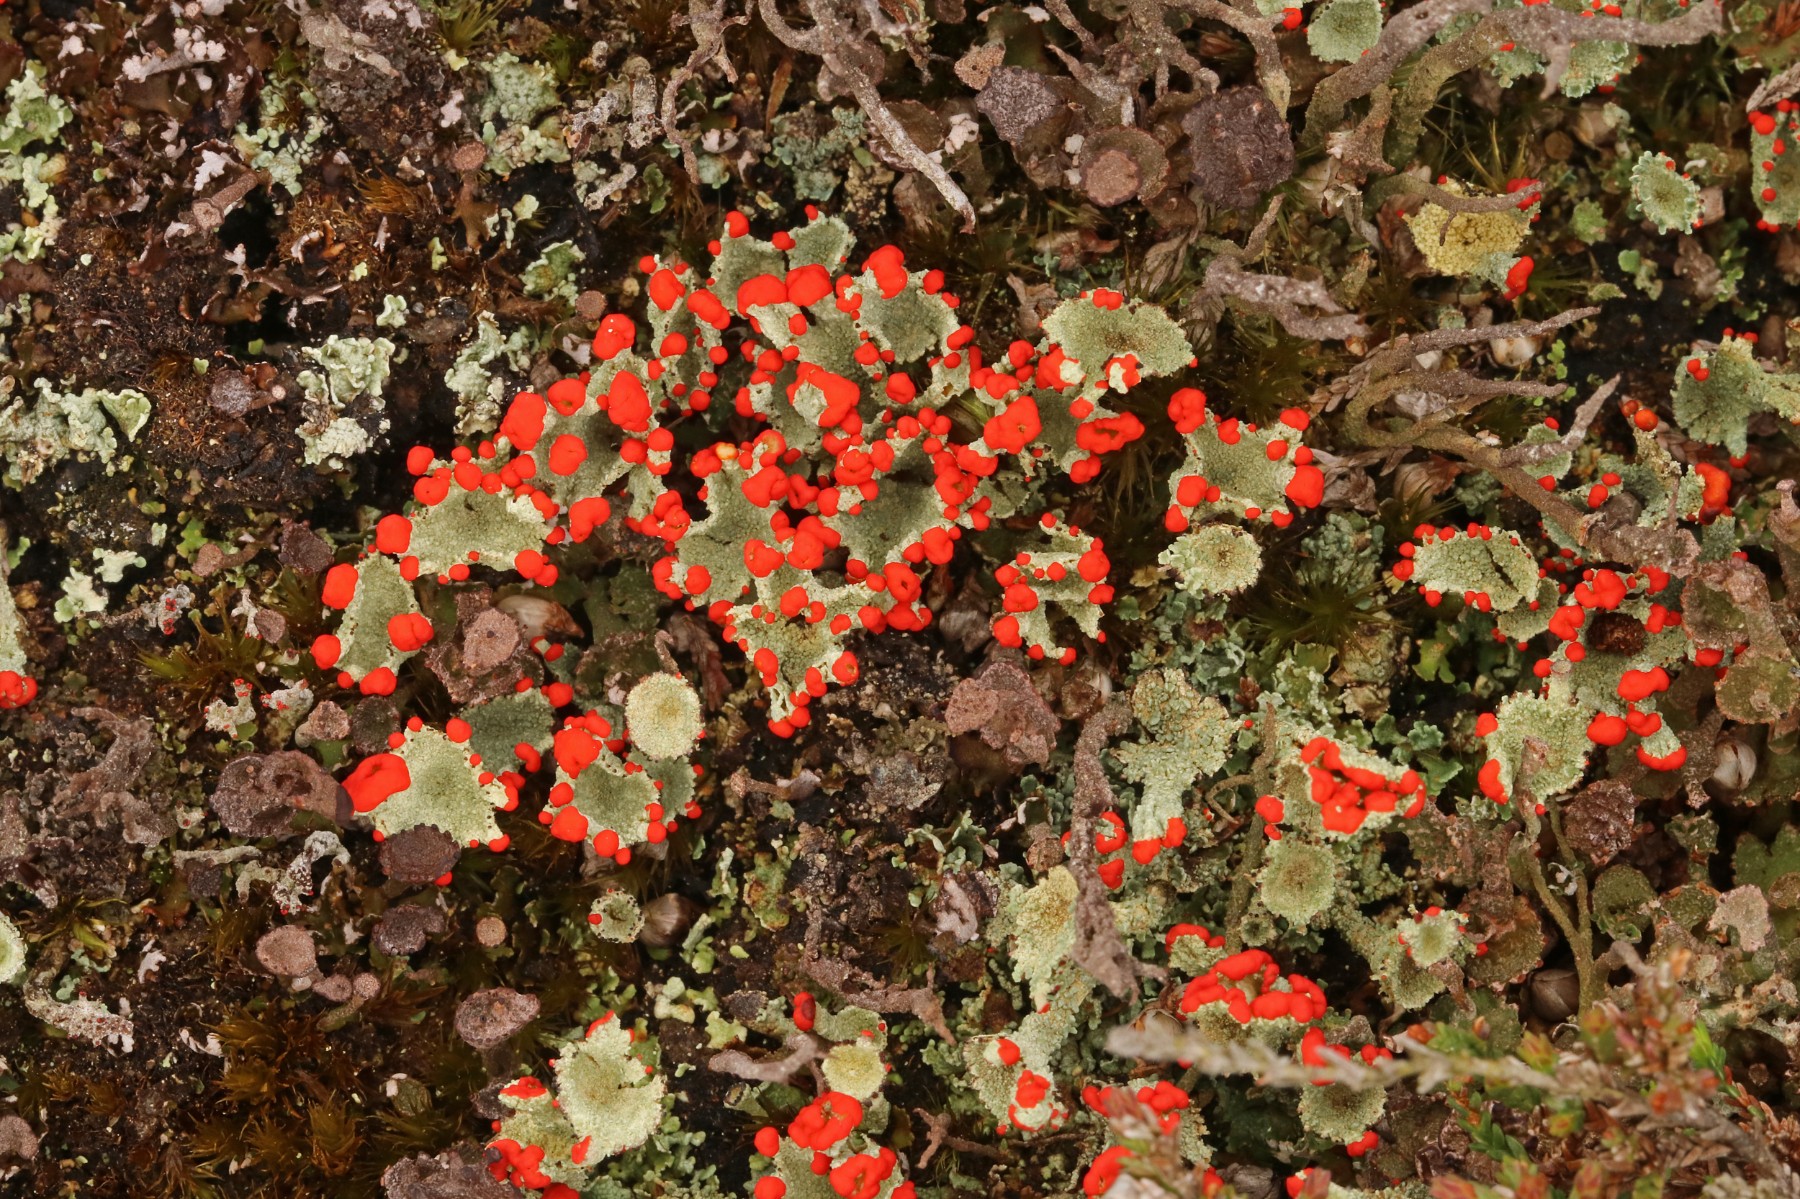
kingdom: Fungi
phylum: Ascomycota
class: Lecanoromycetes
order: Lecanorales
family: Cladoniaceae
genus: Cladonia
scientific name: Cladonia diversa
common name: rød bægerlav
